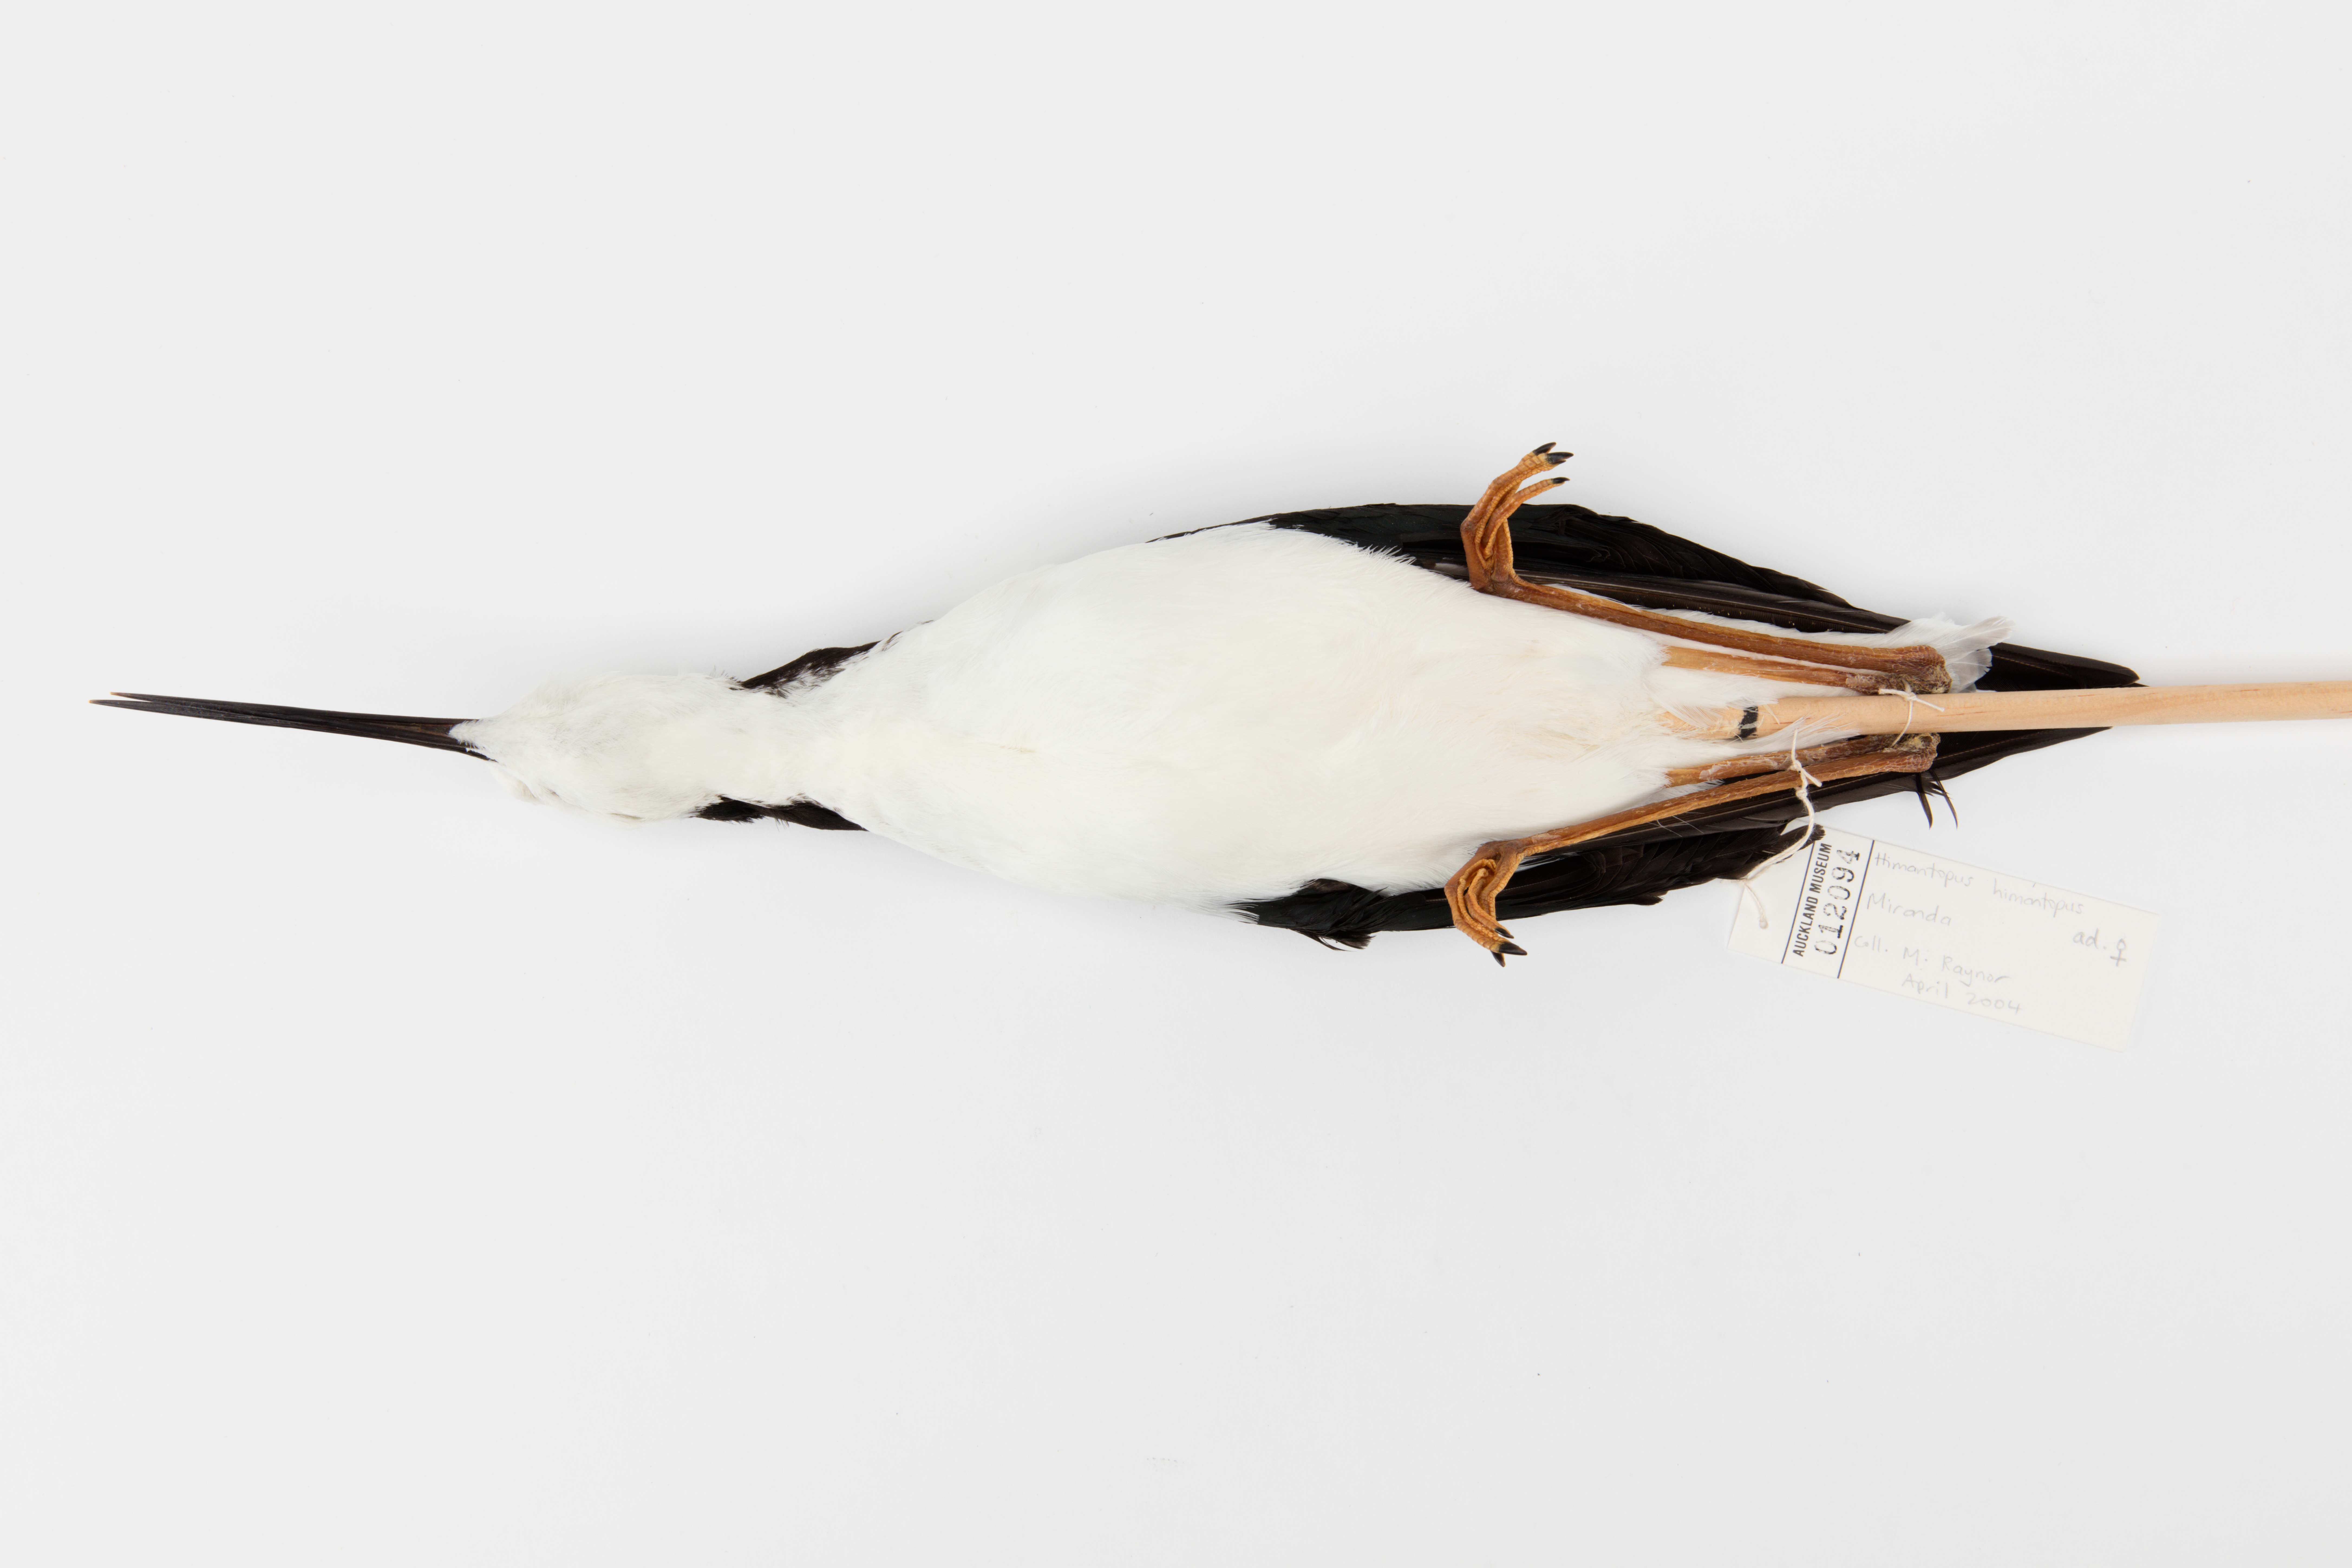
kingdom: Animalia
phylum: Chordata
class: Aves
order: Charadriiformes
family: Recurvirostridae
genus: Himantopus
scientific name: Himantopus himantopus
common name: Black-winged stilt
